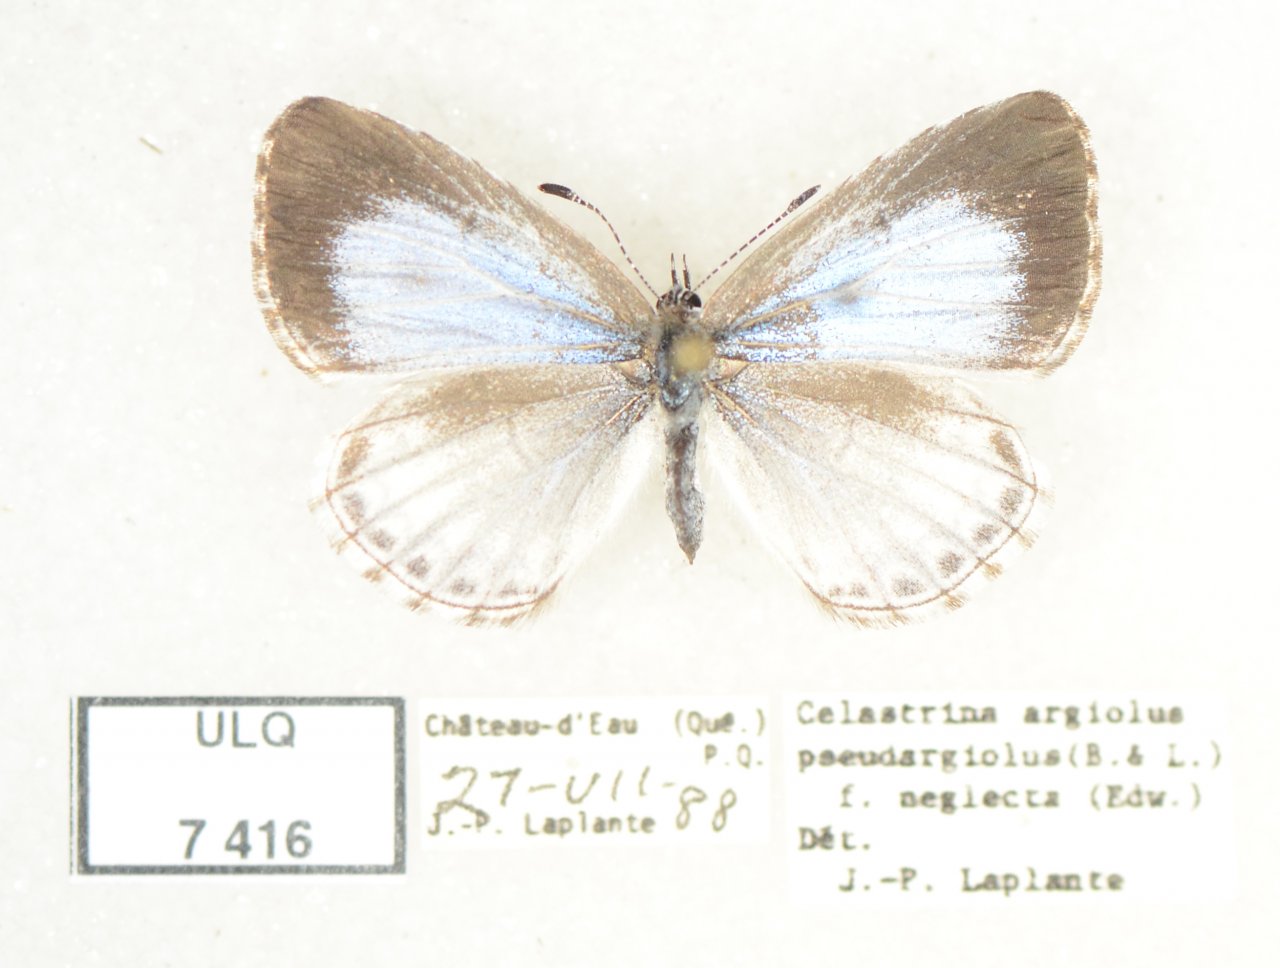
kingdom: Animalia
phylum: Arthropoda
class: Insecta
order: Lepidoptera
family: Lycaenidae
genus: Celastrina
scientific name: Celastrina lucia
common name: Northern Spring Azure
